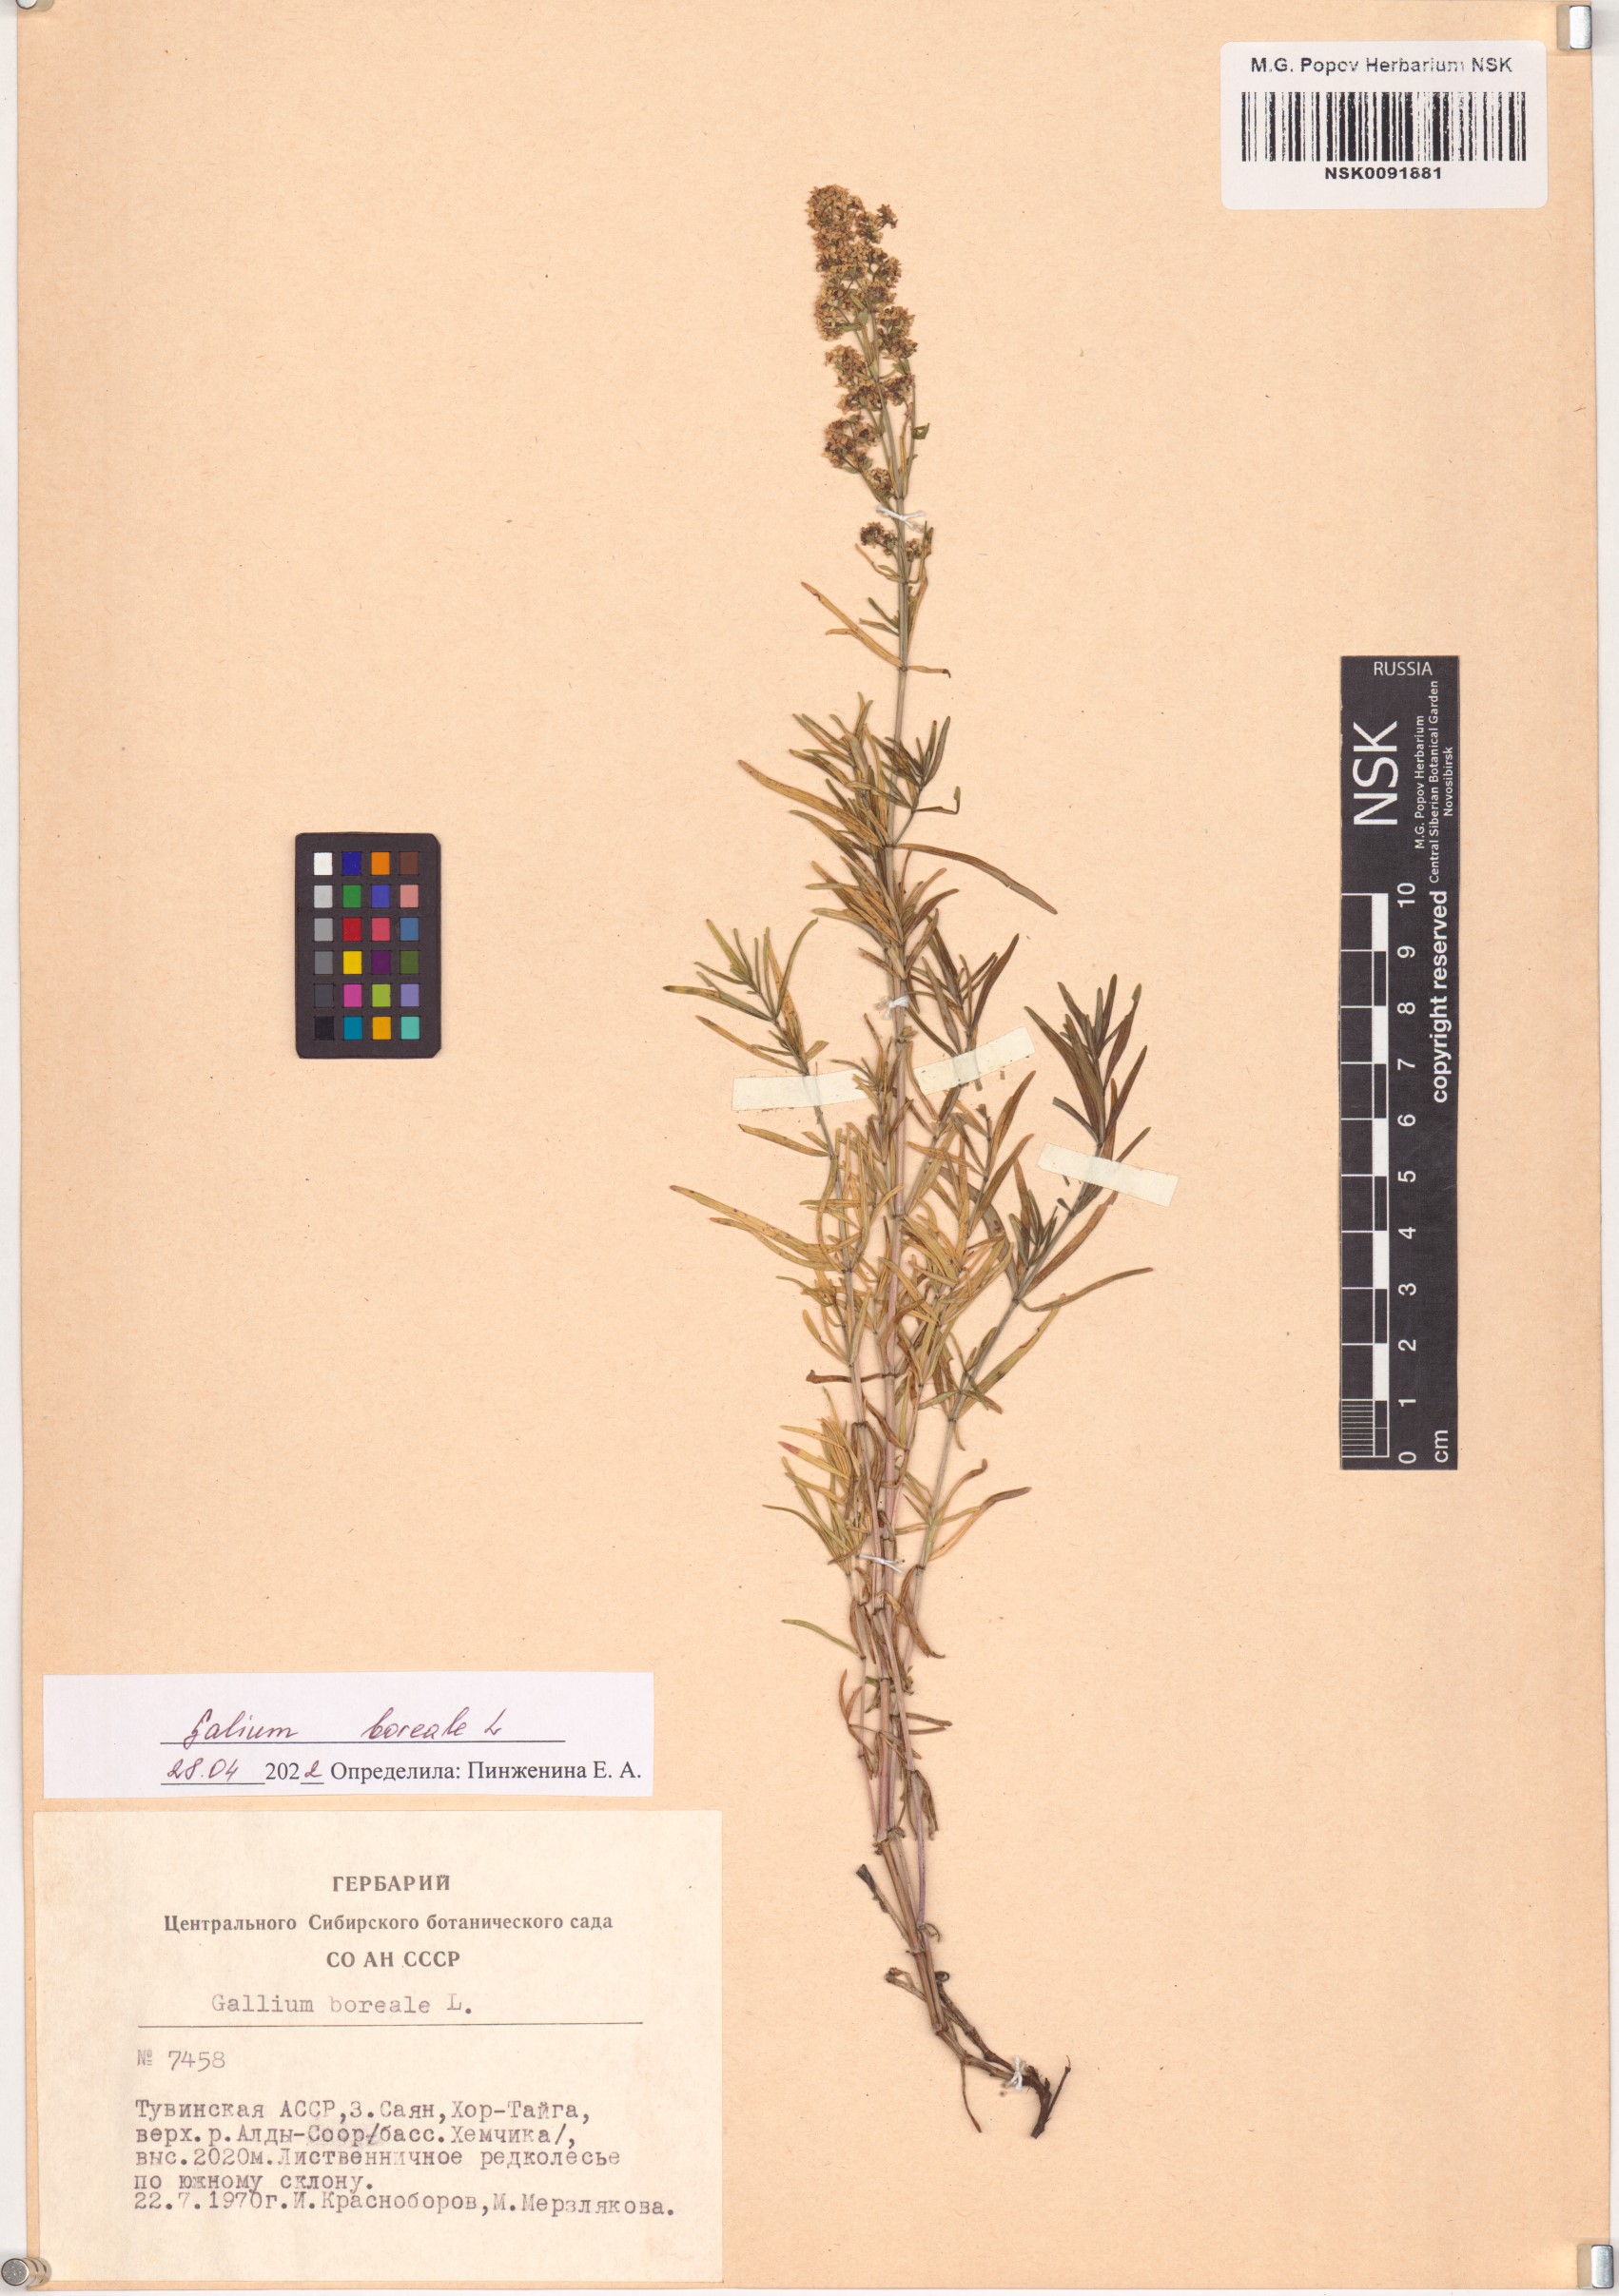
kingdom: Plantae
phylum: Tracheophyta
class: Magnoliopsida
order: Gentianales
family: Rubiaceae
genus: Galium
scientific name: Galium boreale
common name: Northern bedstraw
